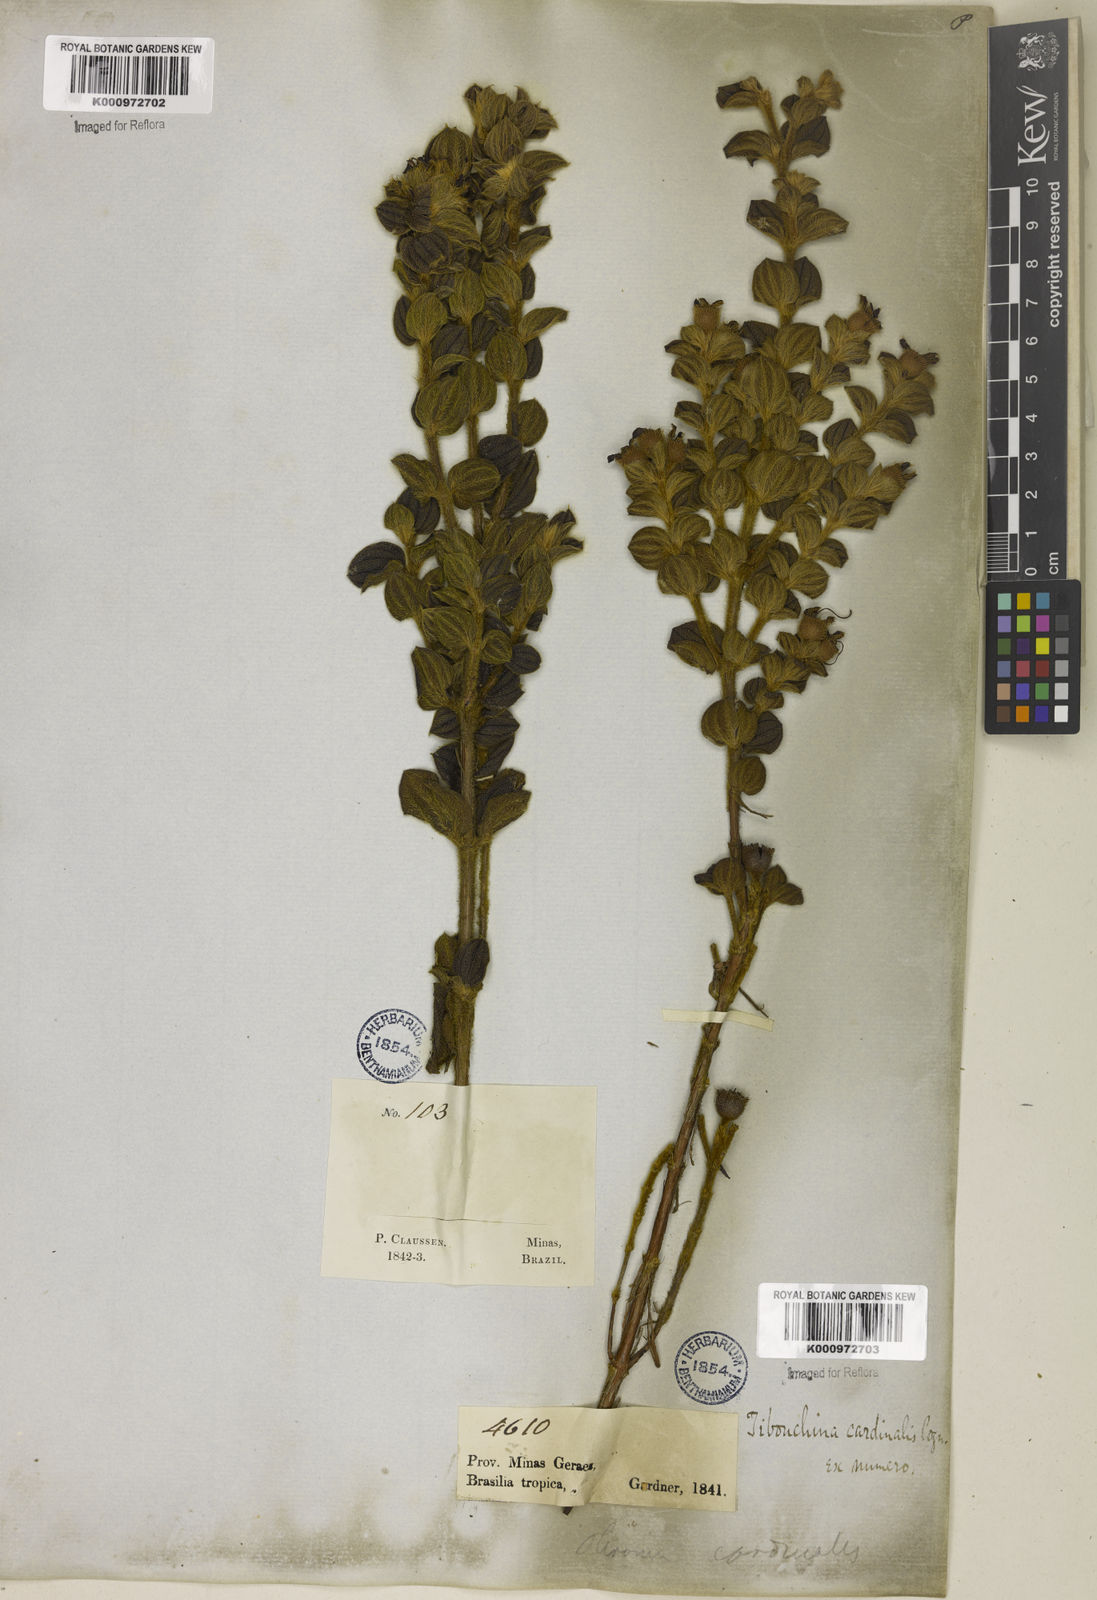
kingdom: Plantae
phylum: Tracheophyta
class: Magnoliopsida
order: Myrtales
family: Melastomataceae
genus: Chaetogastra
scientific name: Chaetogastra cardinalis
